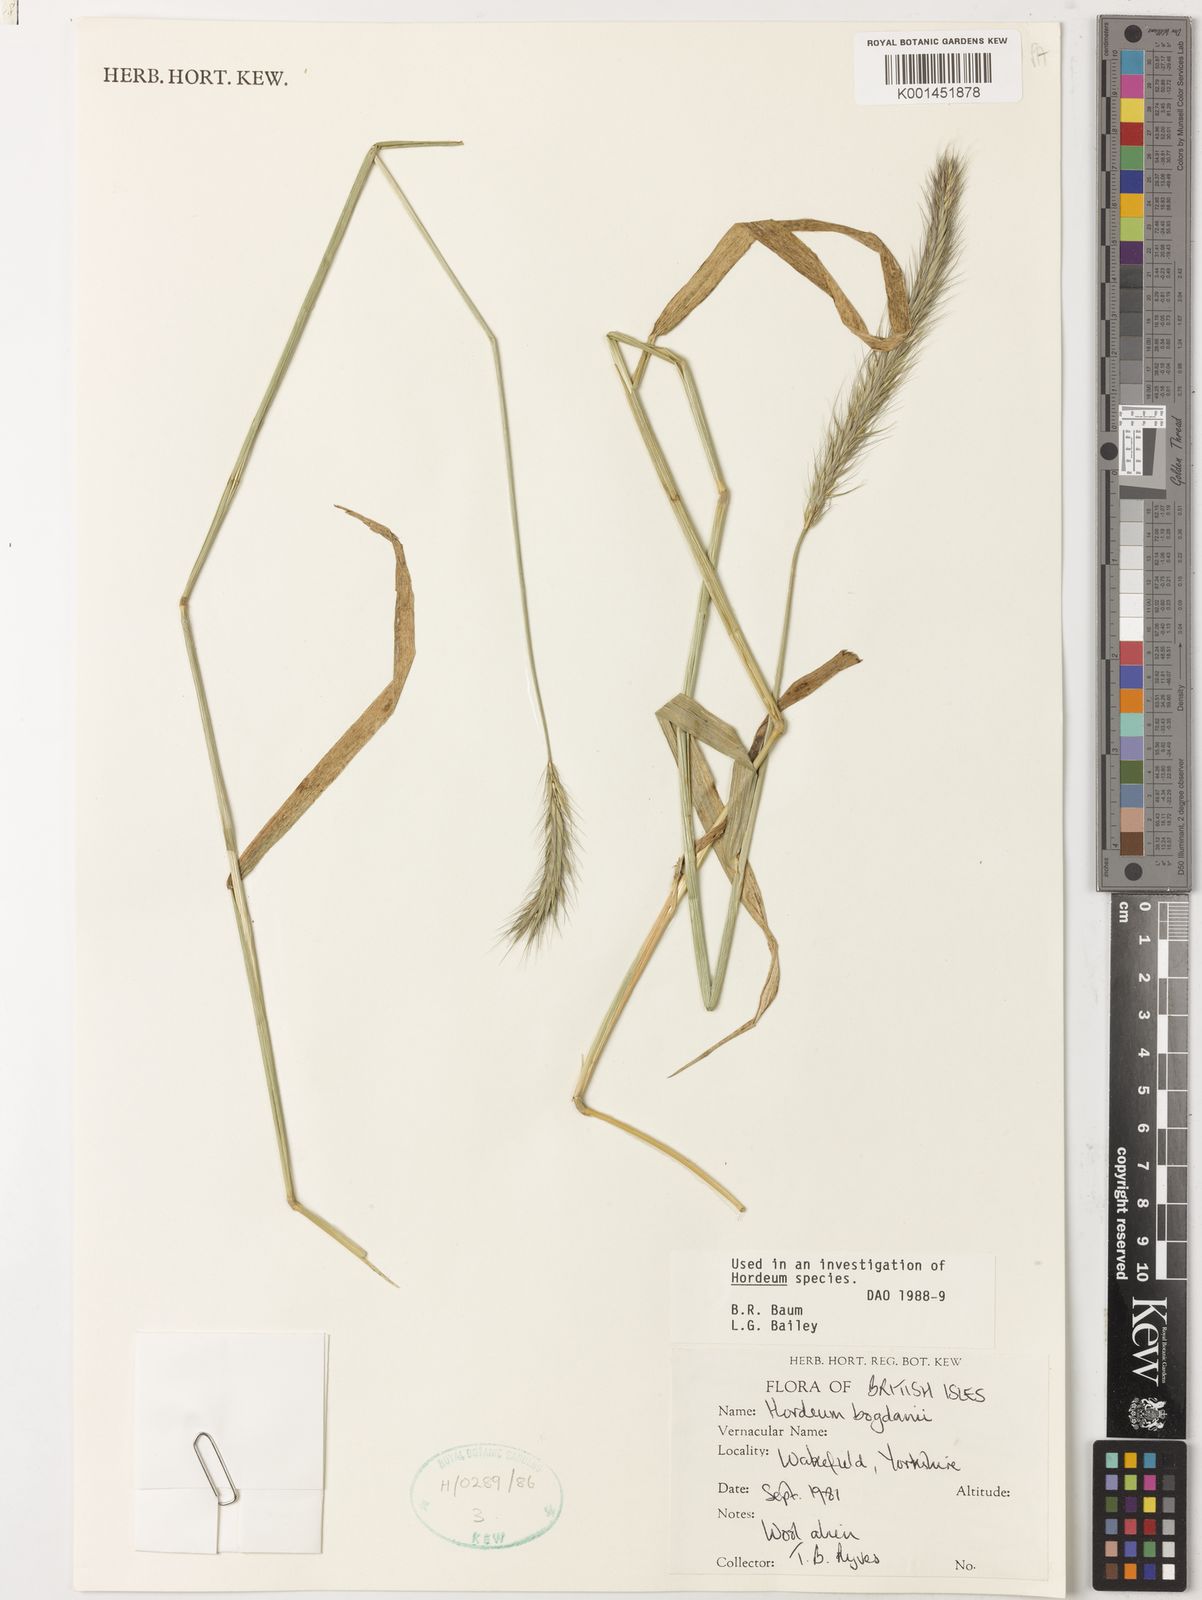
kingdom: Plantae
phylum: Tracheophyta
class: Liliopsida
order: Poales
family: Poaceae
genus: Hordeum
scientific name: Hordeum bogdanii
